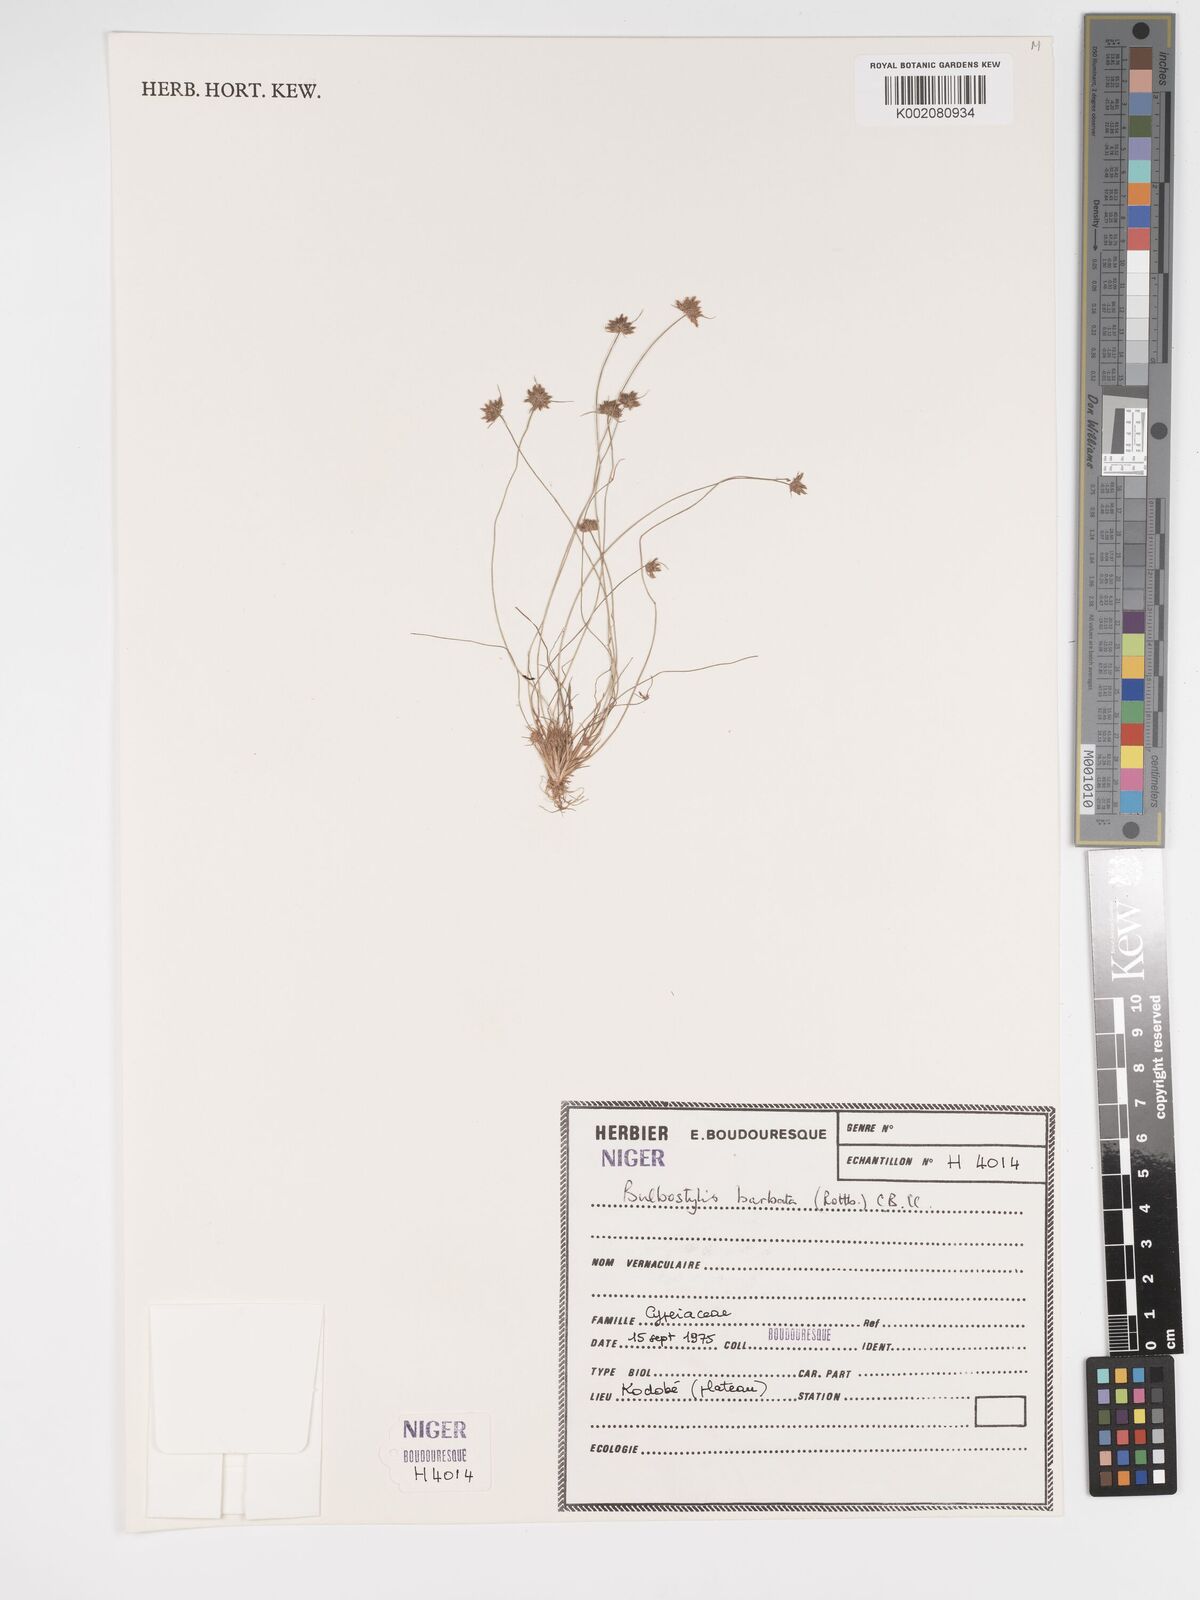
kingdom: Plantae
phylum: Tracheophyta
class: Liliopsida
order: Poales
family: Cyperaceae
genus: Bulbostylis
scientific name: Bulbostylis barbata
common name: Watergrass
